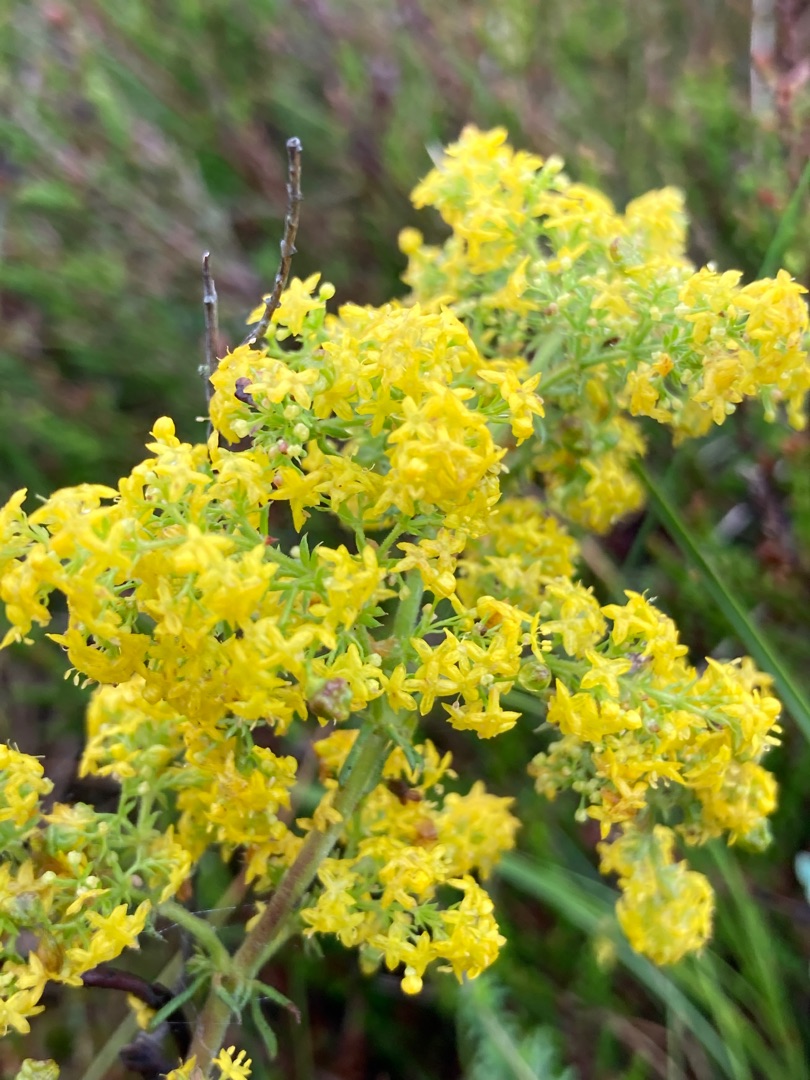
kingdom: Plantae
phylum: Tracheophyta
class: Magnoliopsida
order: Gentianales
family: Rubiaceae
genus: Galium
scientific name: Galium verum
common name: Gul snerre
